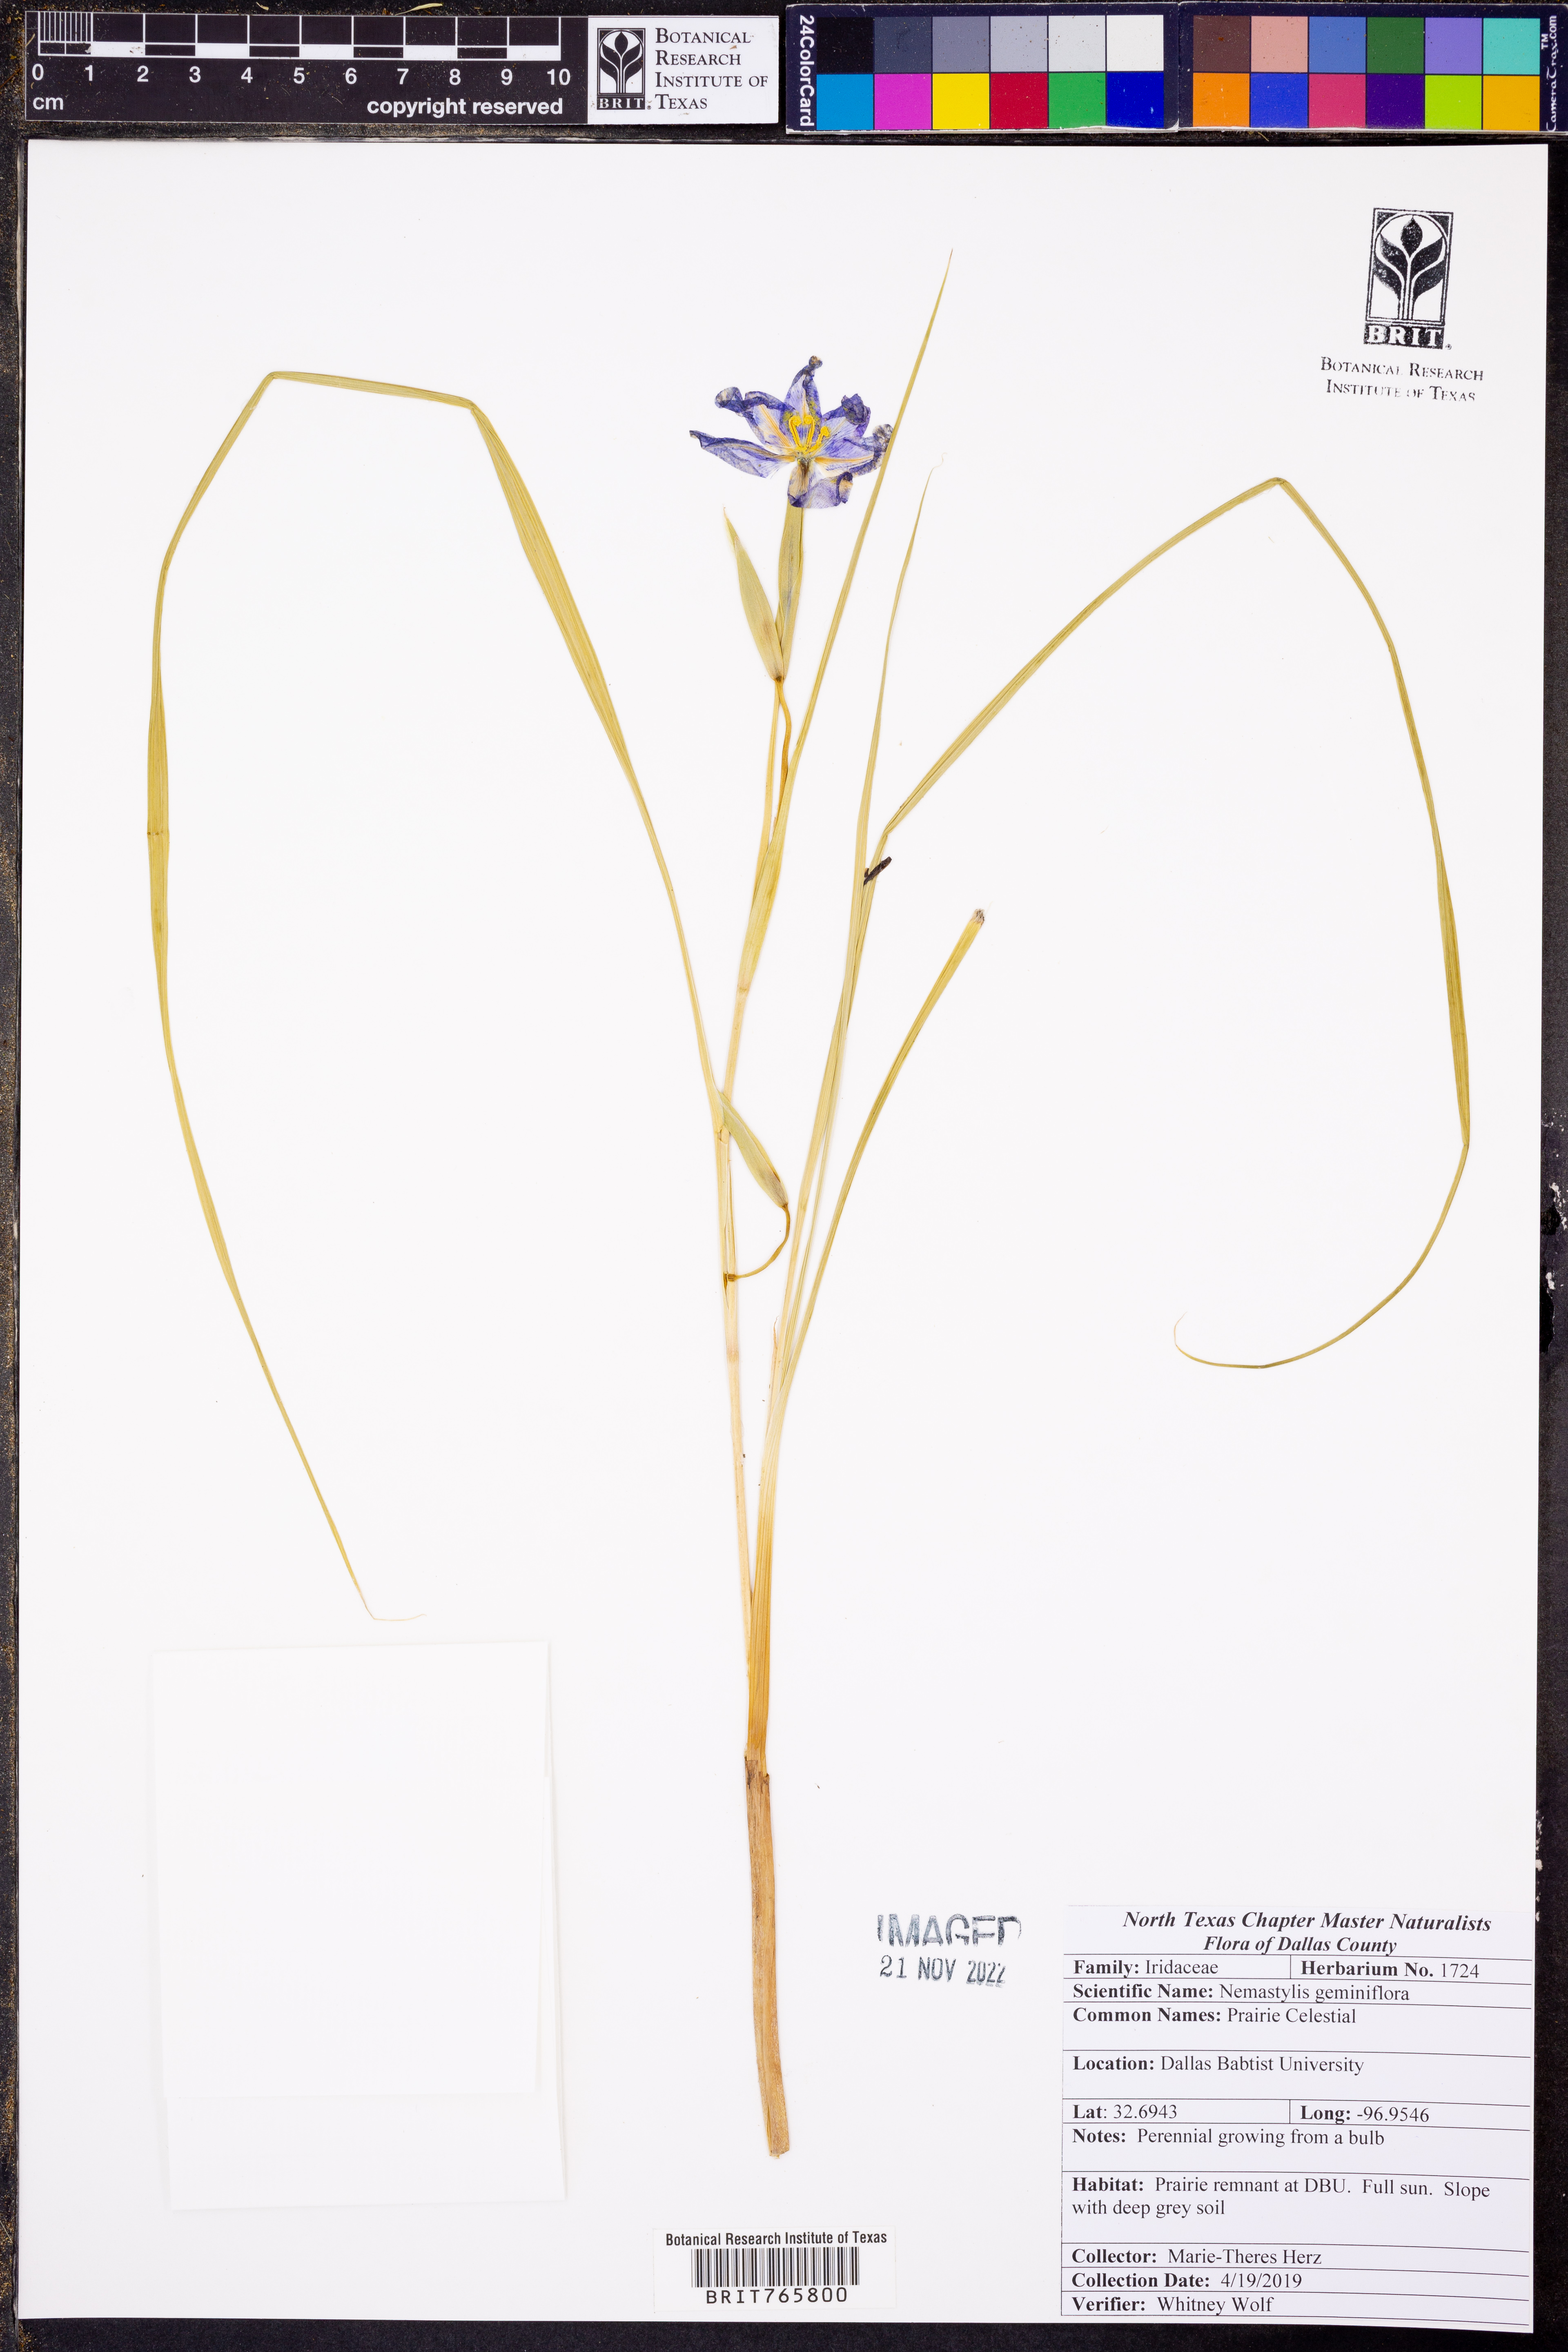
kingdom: Plantae
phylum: Tracheophyta
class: Liliopsida
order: Asparagales
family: Iridaceae
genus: Nemastylis
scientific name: Nemastylis geminiflora
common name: Prairie celestial
